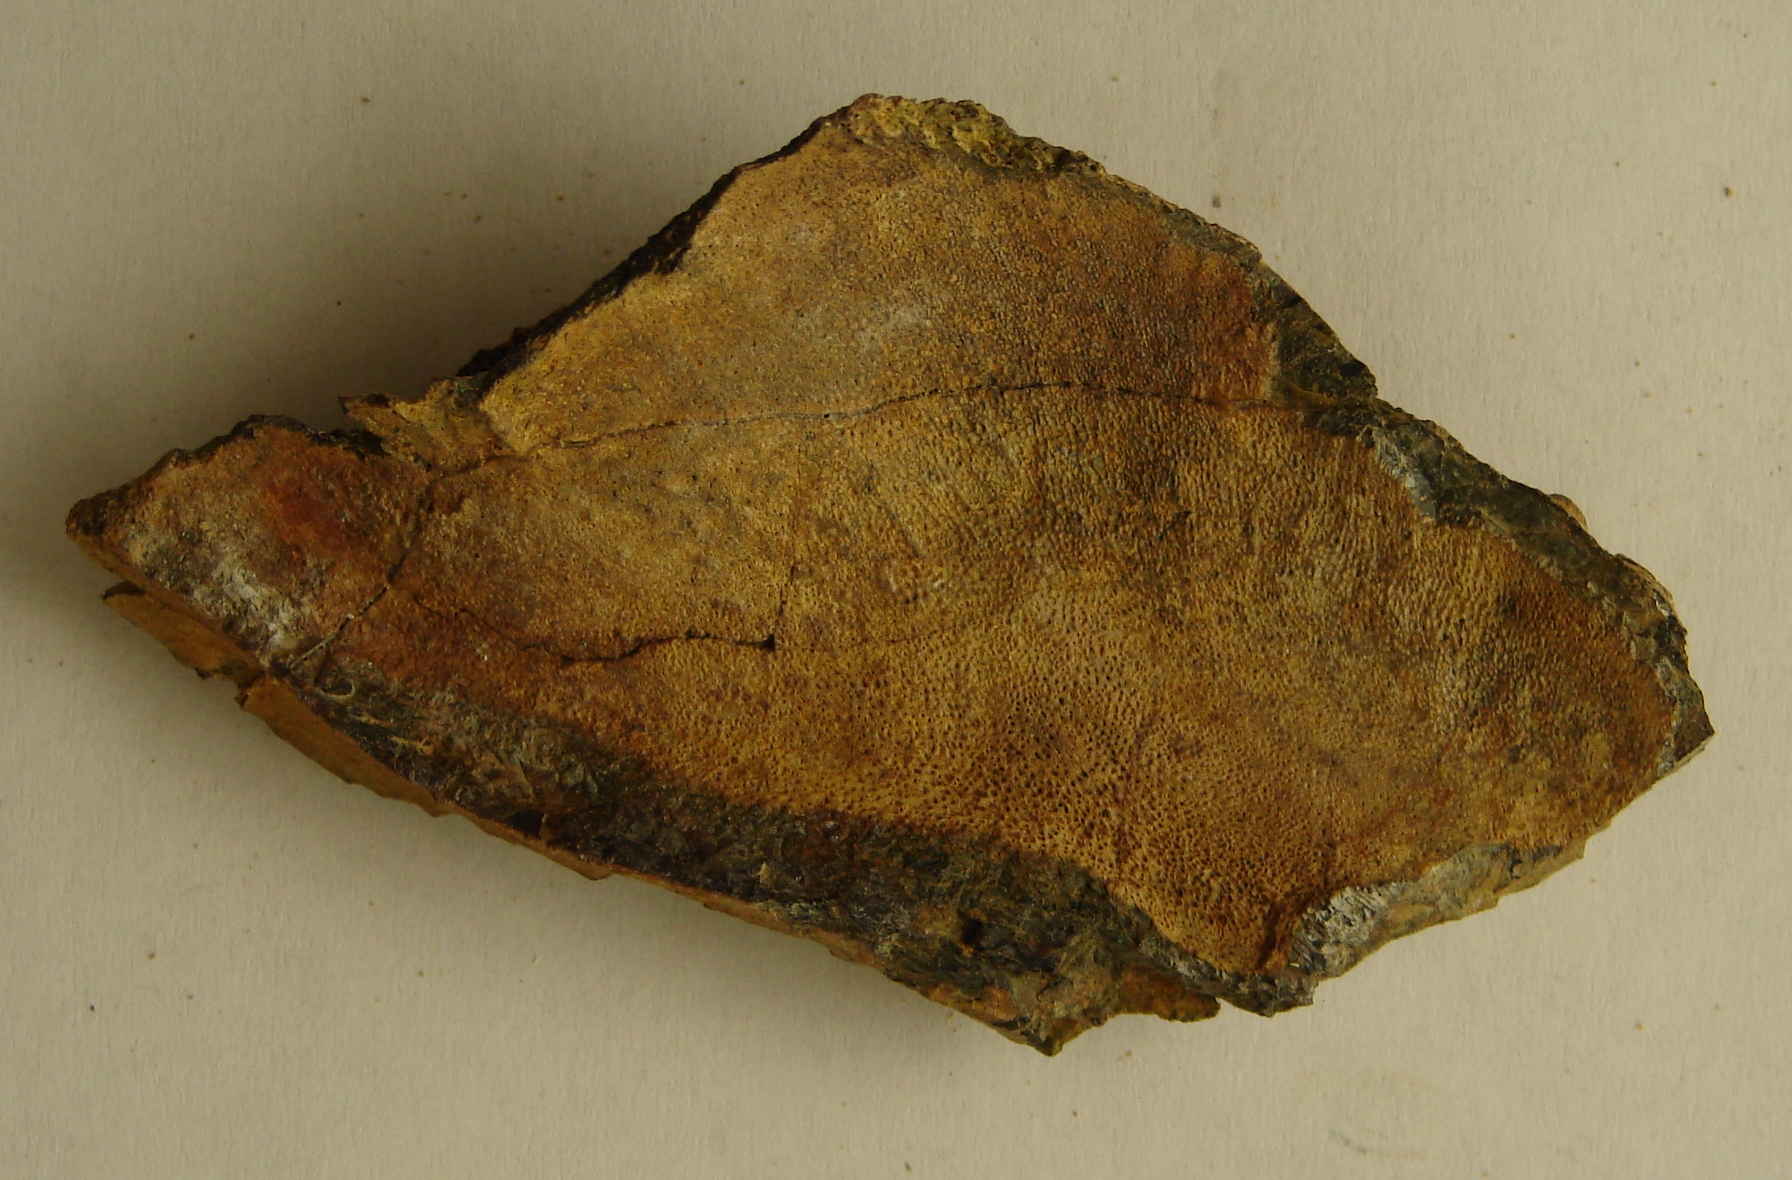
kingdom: Animalia
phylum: Chordata
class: Holocephali
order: Chimaeriformes
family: Myriacanthidae
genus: Halonodon
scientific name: Halonodon
